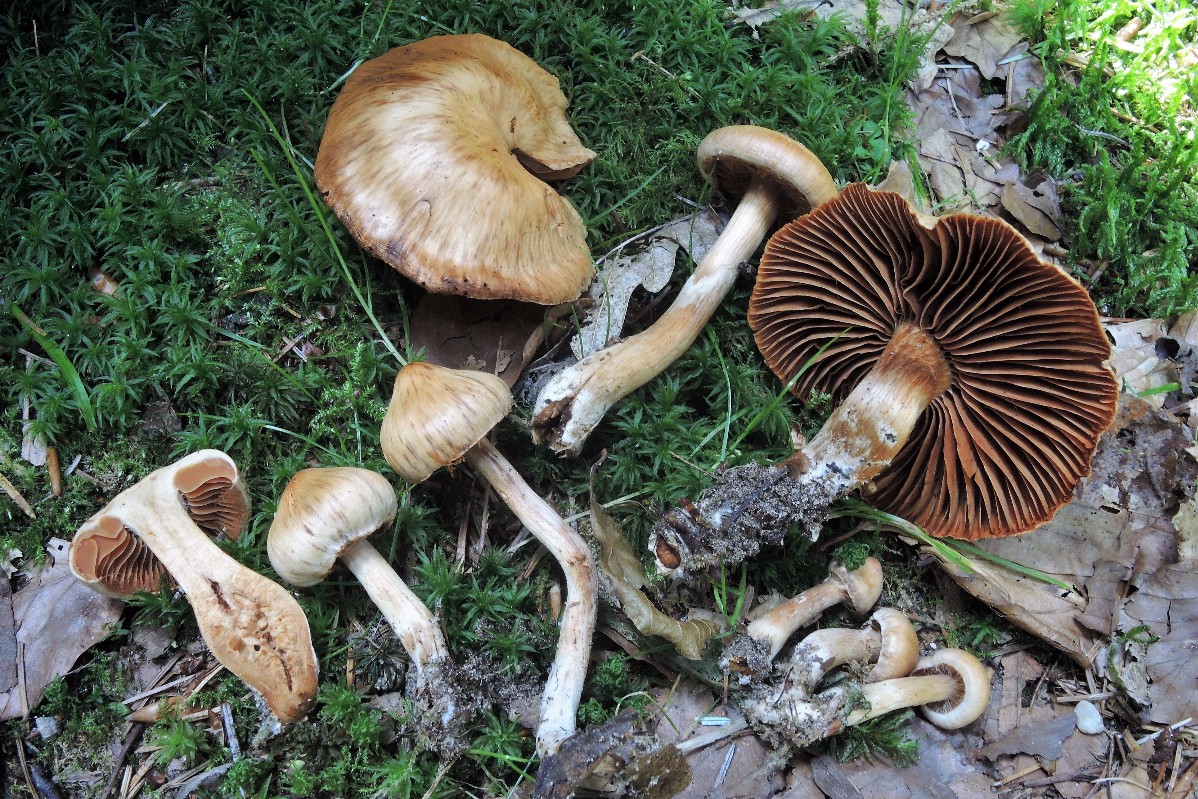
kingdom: Fungi
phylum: Basidiomycota
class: Agaricomycetes
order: Agaricales
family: Cortinariaceae
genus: Cortinarius
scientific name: Cortinarius hinnuleus
